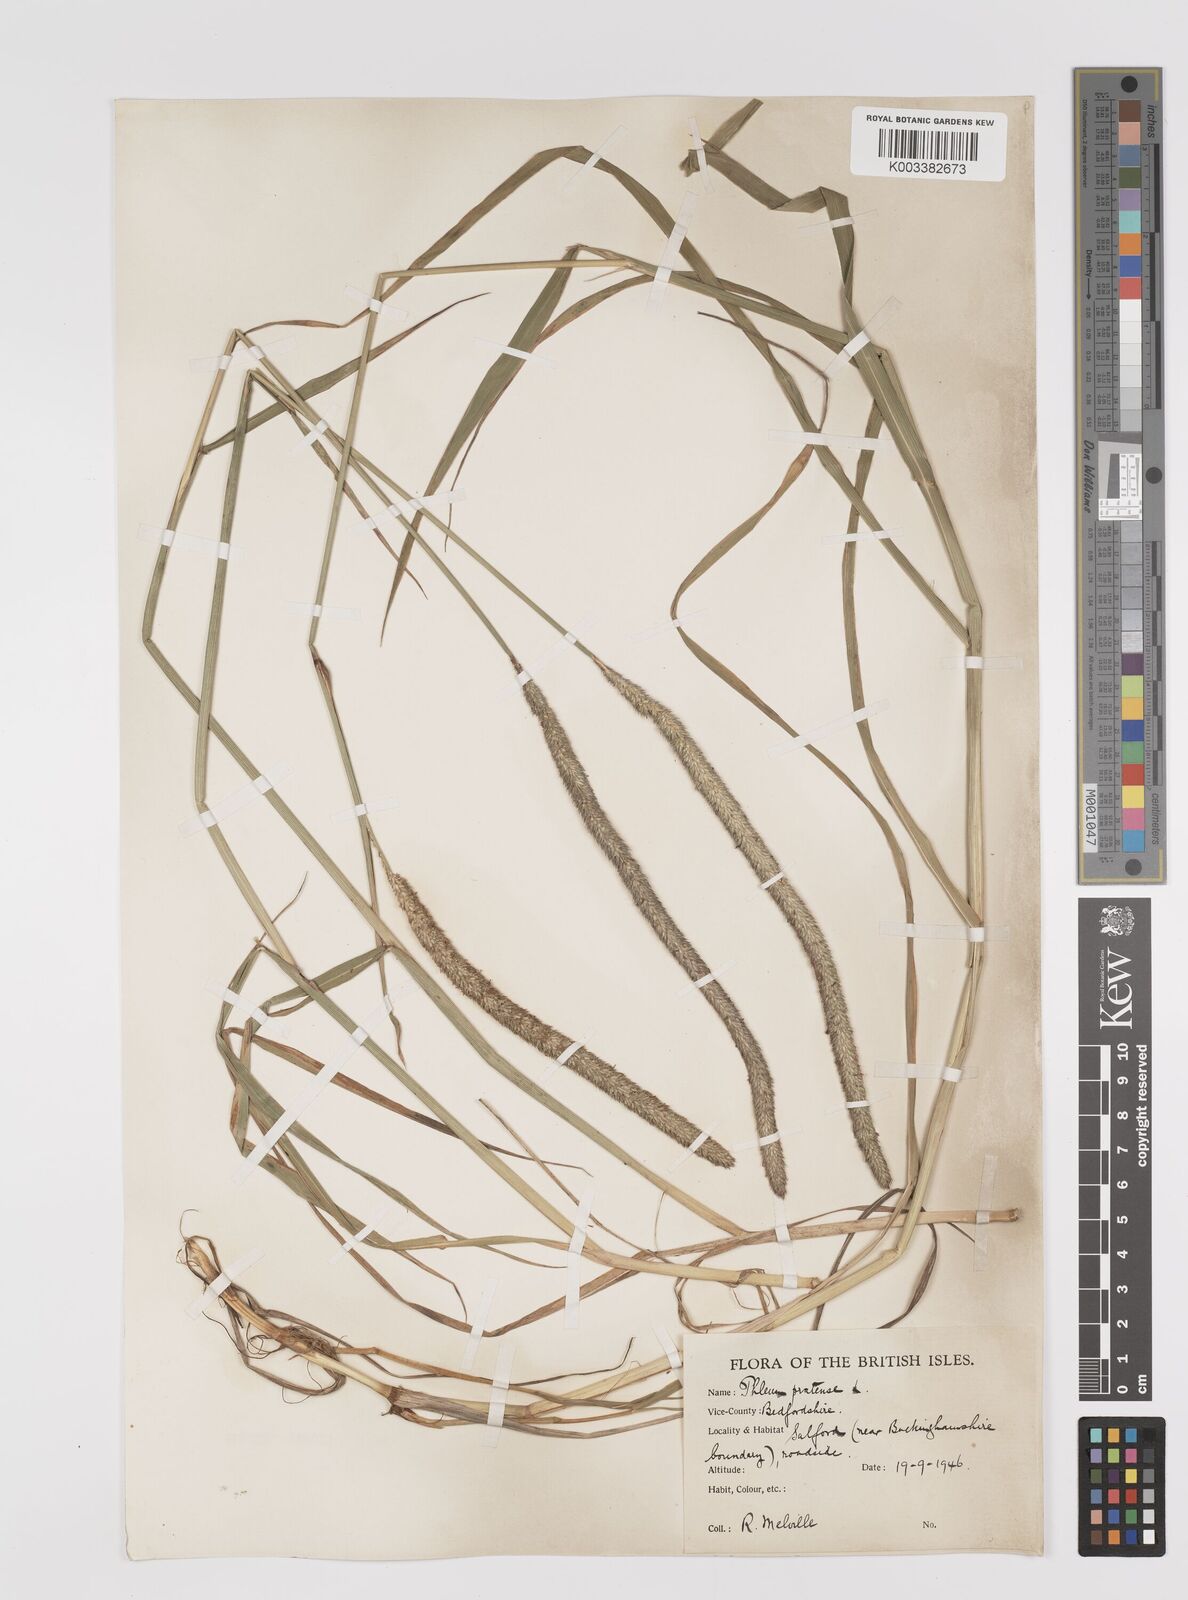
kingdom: Plantae
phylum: Tracheophyta
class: Liliopsida
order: Poales
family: Poaceae
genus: Phleum
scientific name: Phleum pratense
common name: Timothy grass
